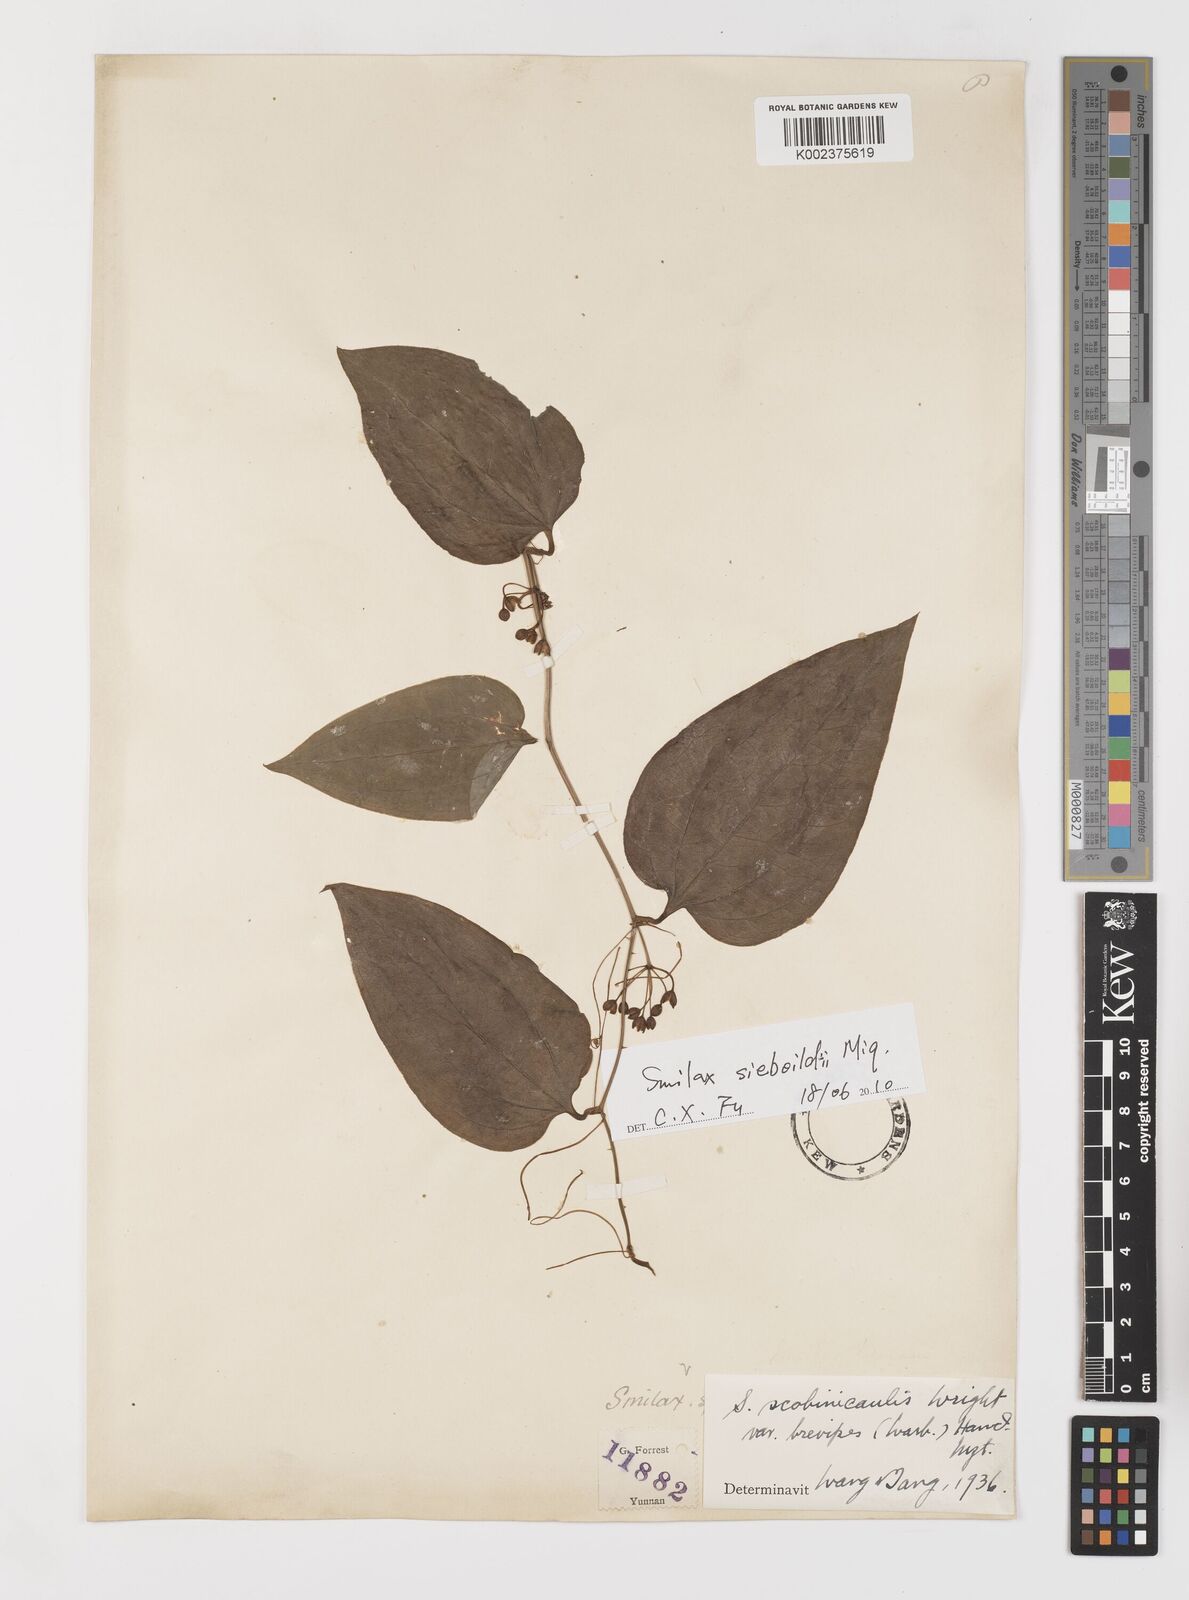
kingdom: Plantae
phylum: Tracheophyta
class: Liliopsida
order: Liliales
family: Smilacaceae
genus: Smilax
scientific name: Smilax scobinicaulis
